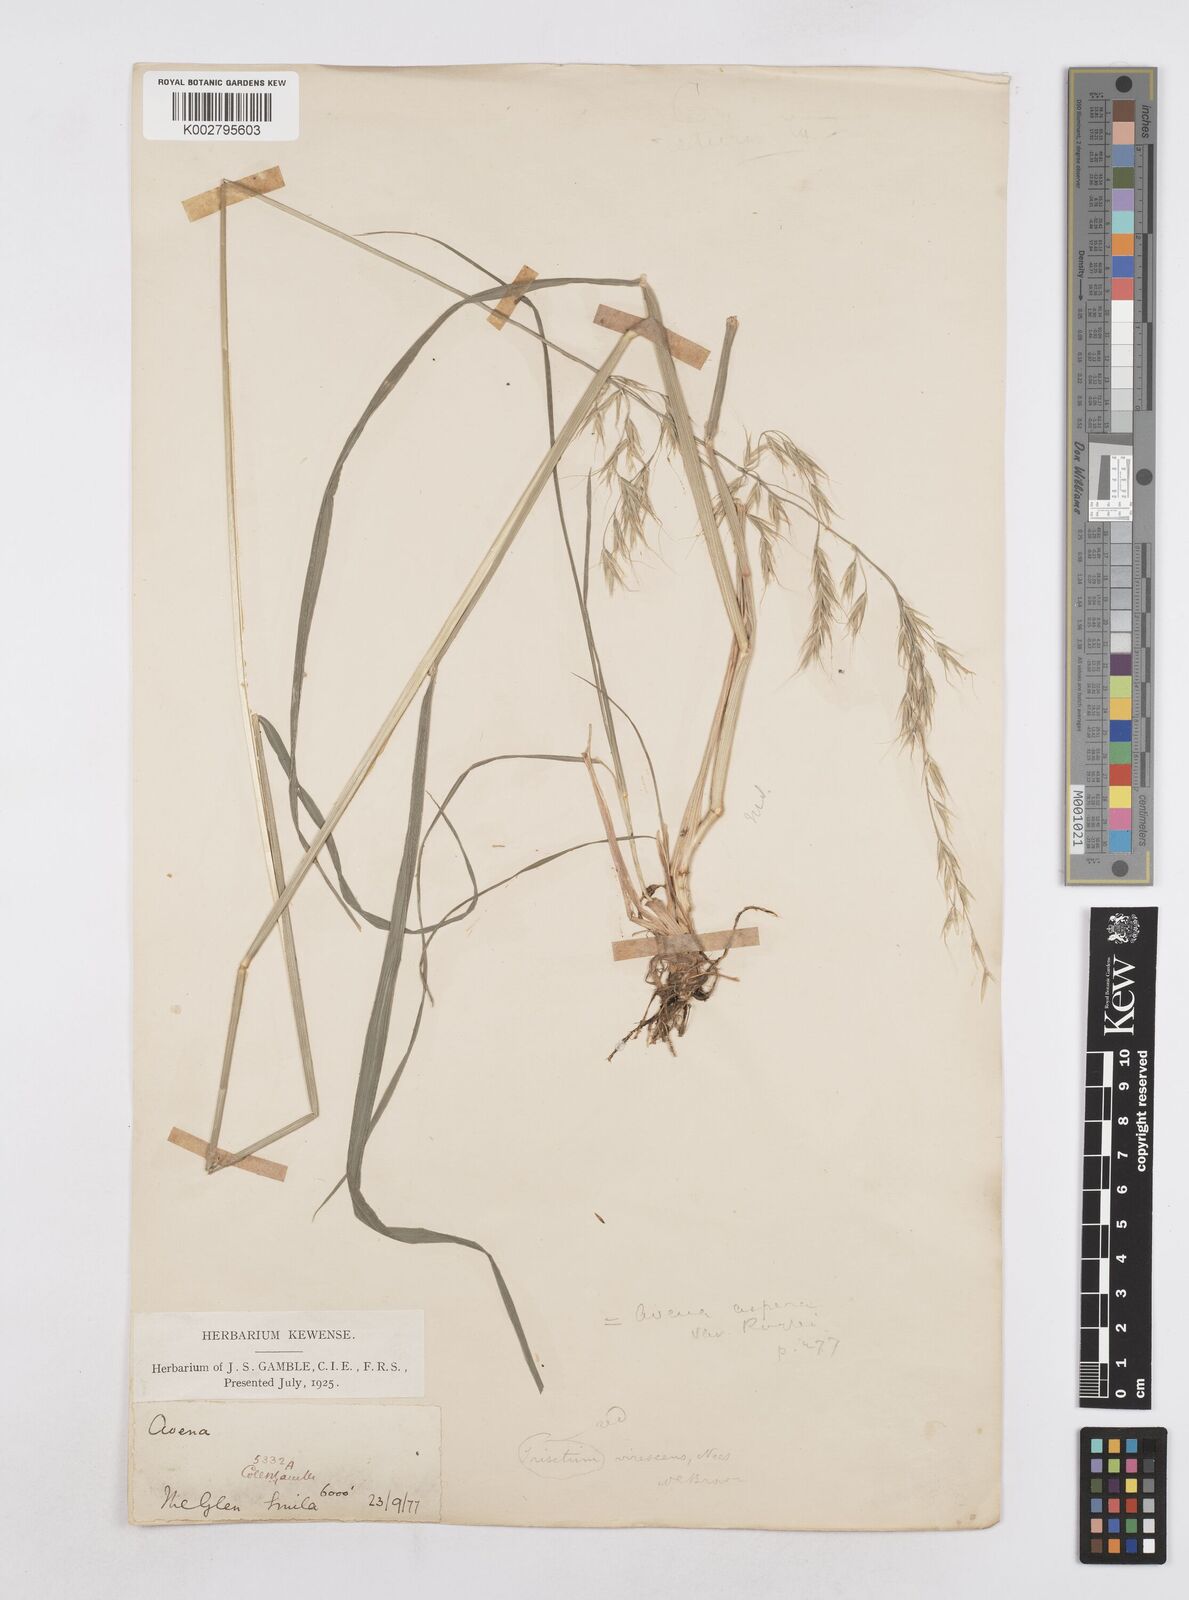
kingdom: Plantae
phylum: Tracheophyta
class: Liliopsida
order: Poales
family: Poaceae
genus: Helictotrichon
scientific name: Helictotrichon
